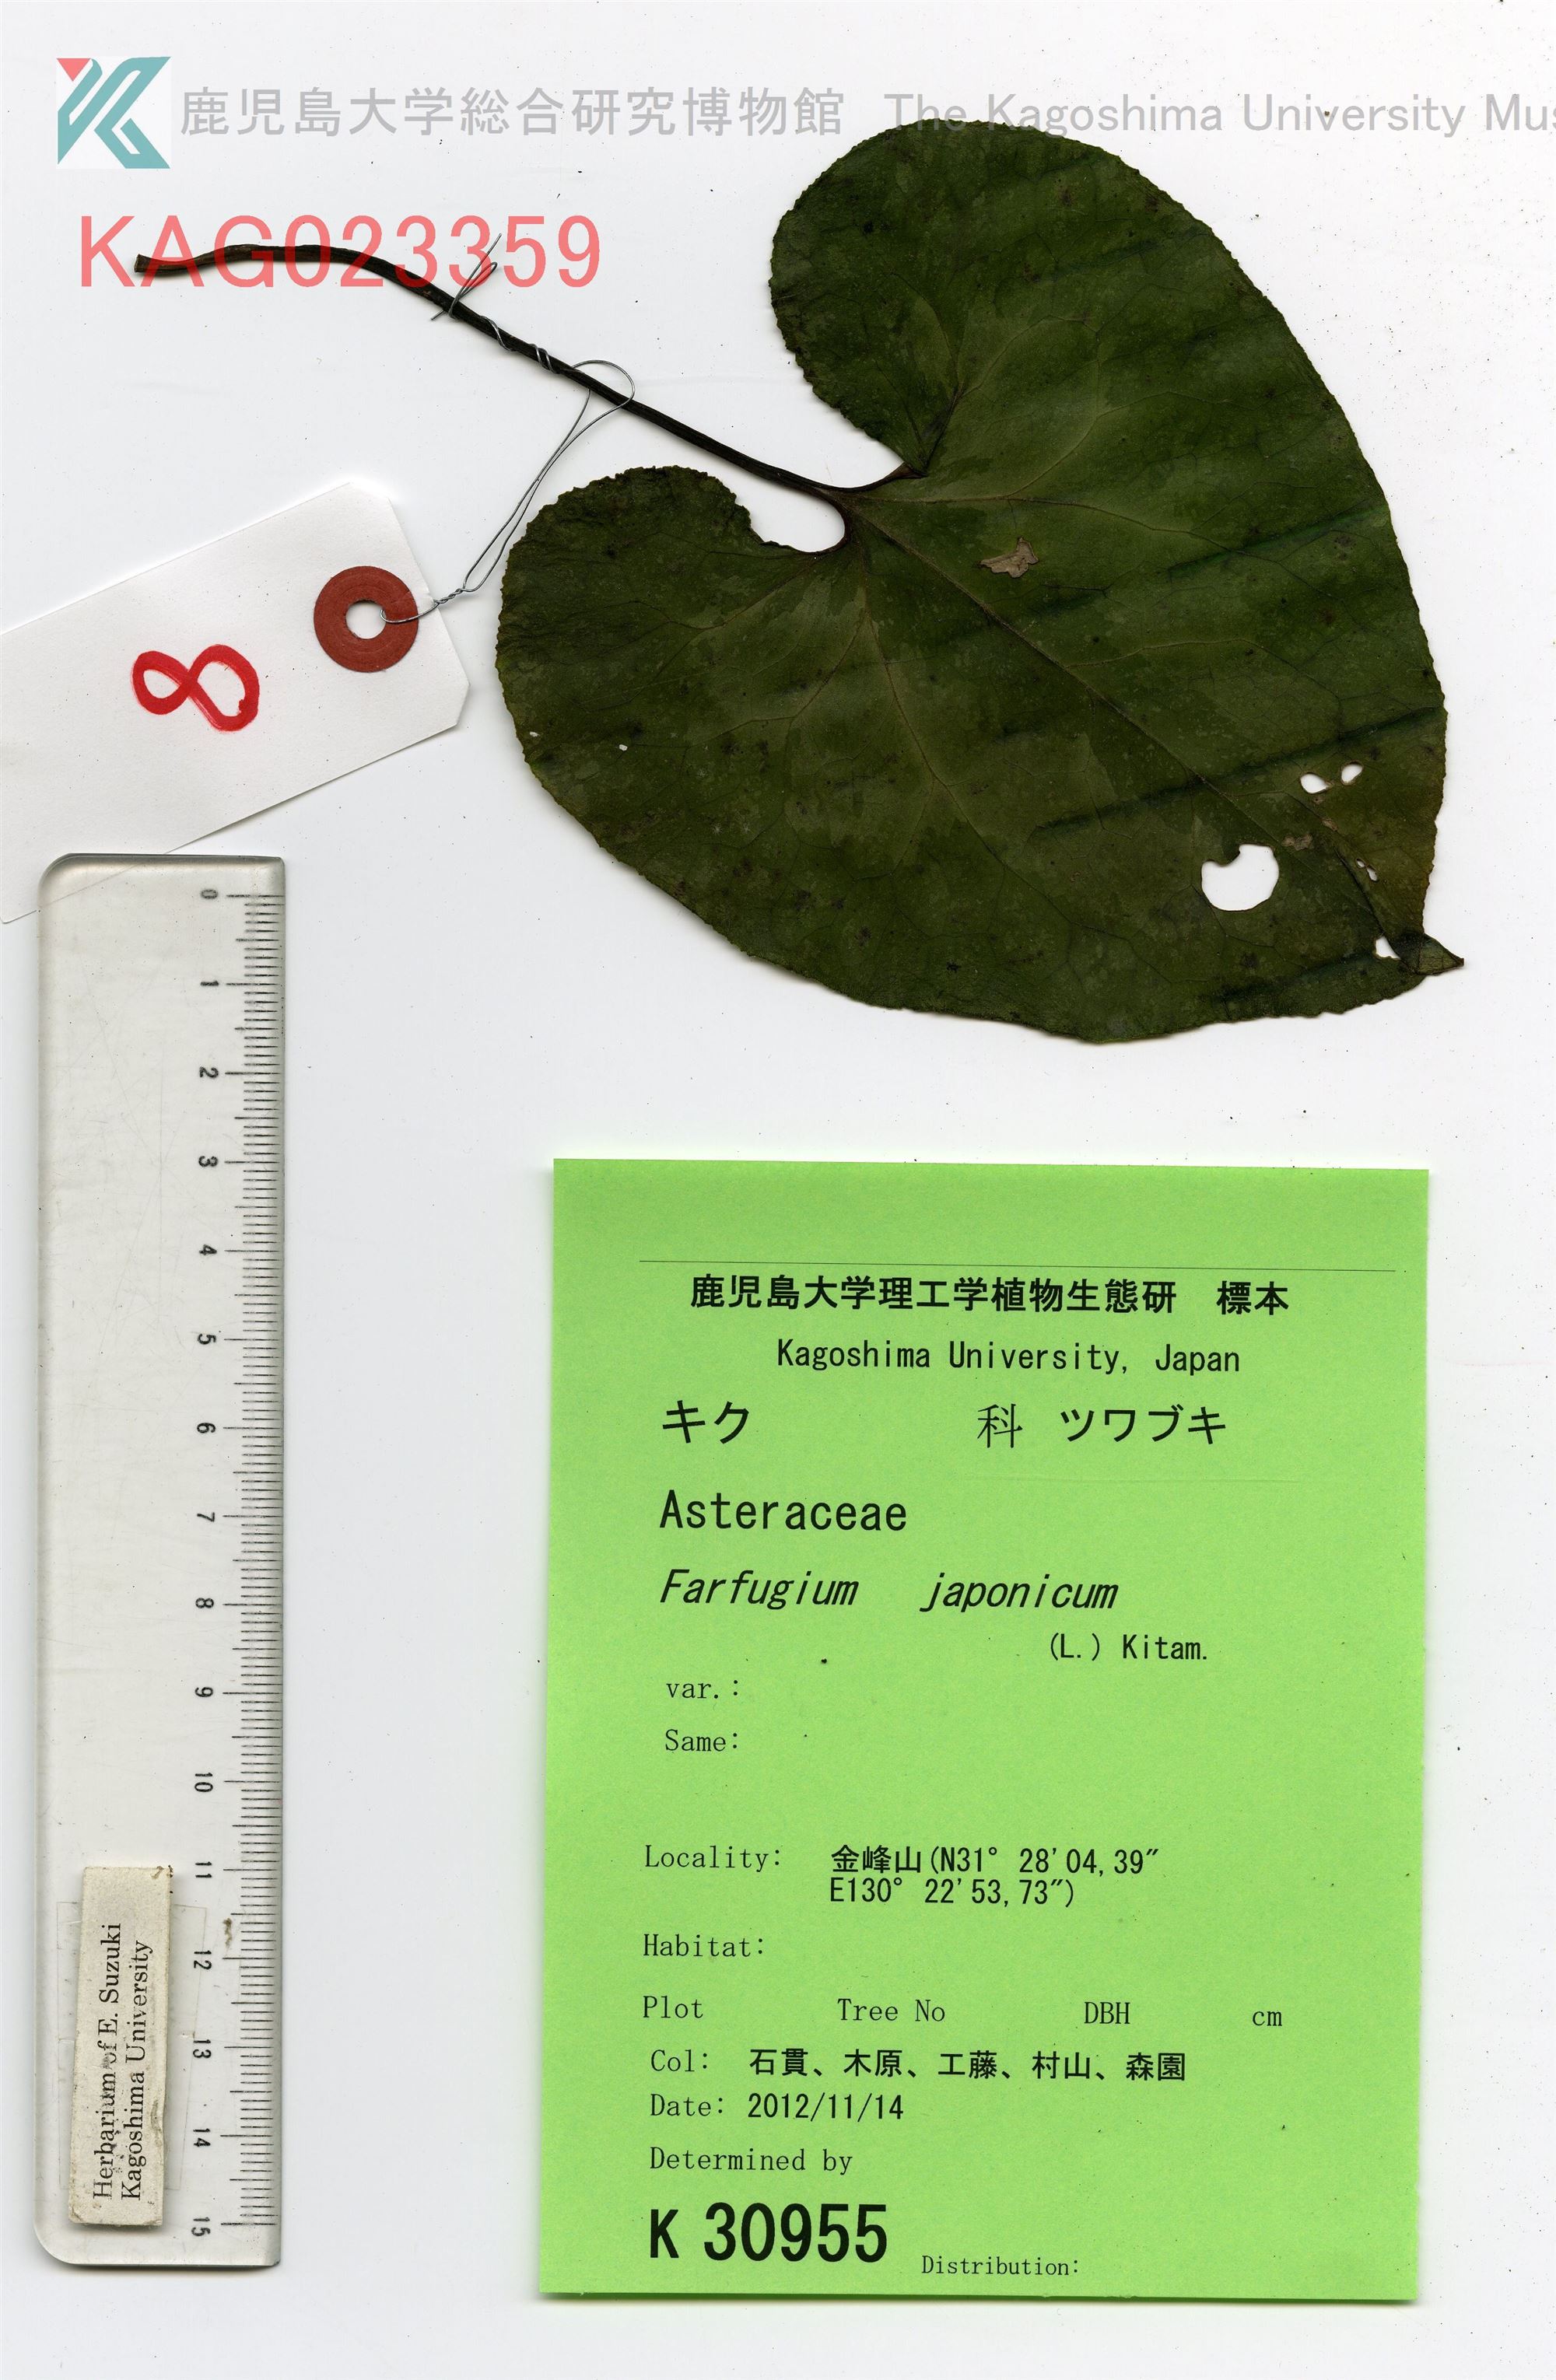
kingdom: Plantae
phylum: Tracheophyta
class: Magnoliopsida
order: Asterales
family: Asteraceae
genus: Farfugium
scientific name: Farfugium japonicum
